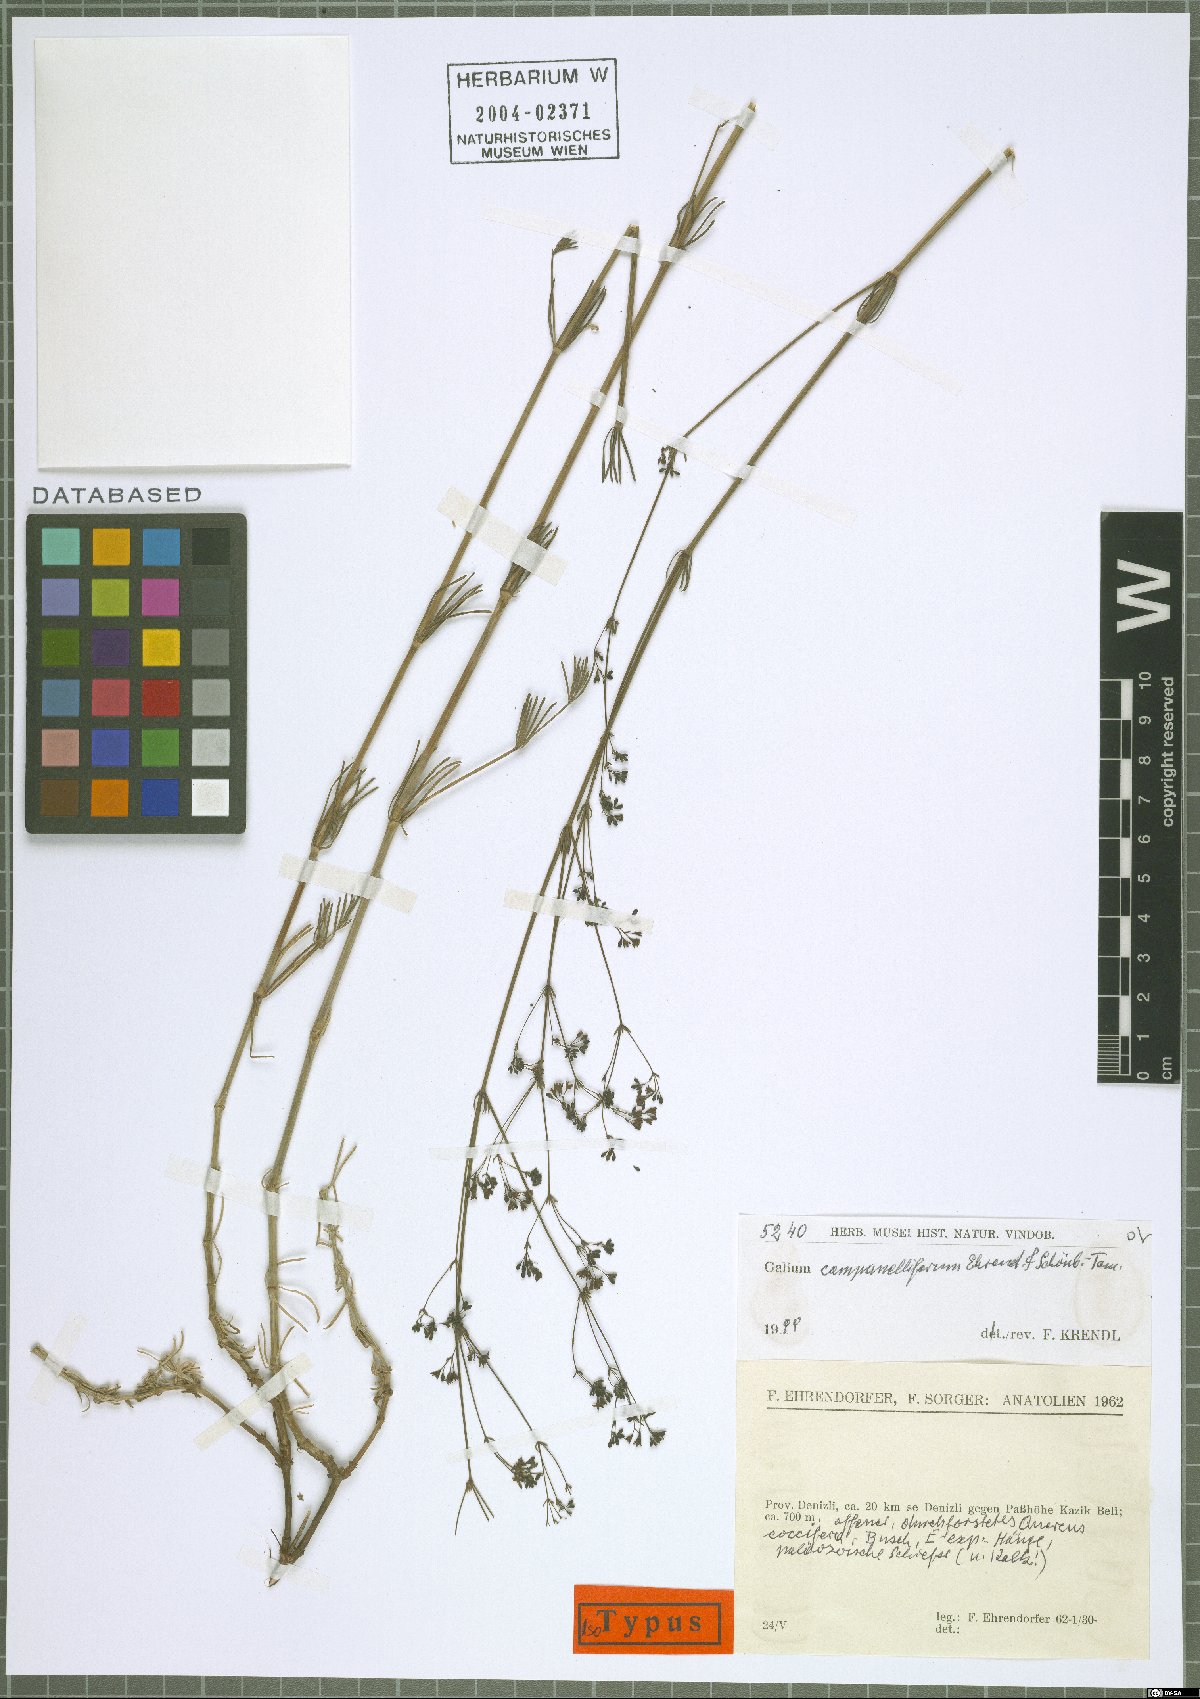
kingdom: Plantae
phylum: Tracheophyta
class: Magnoliopsida
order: Gentianales
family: Rubiaceae
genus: Galium
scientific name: Galium campanelliferum
